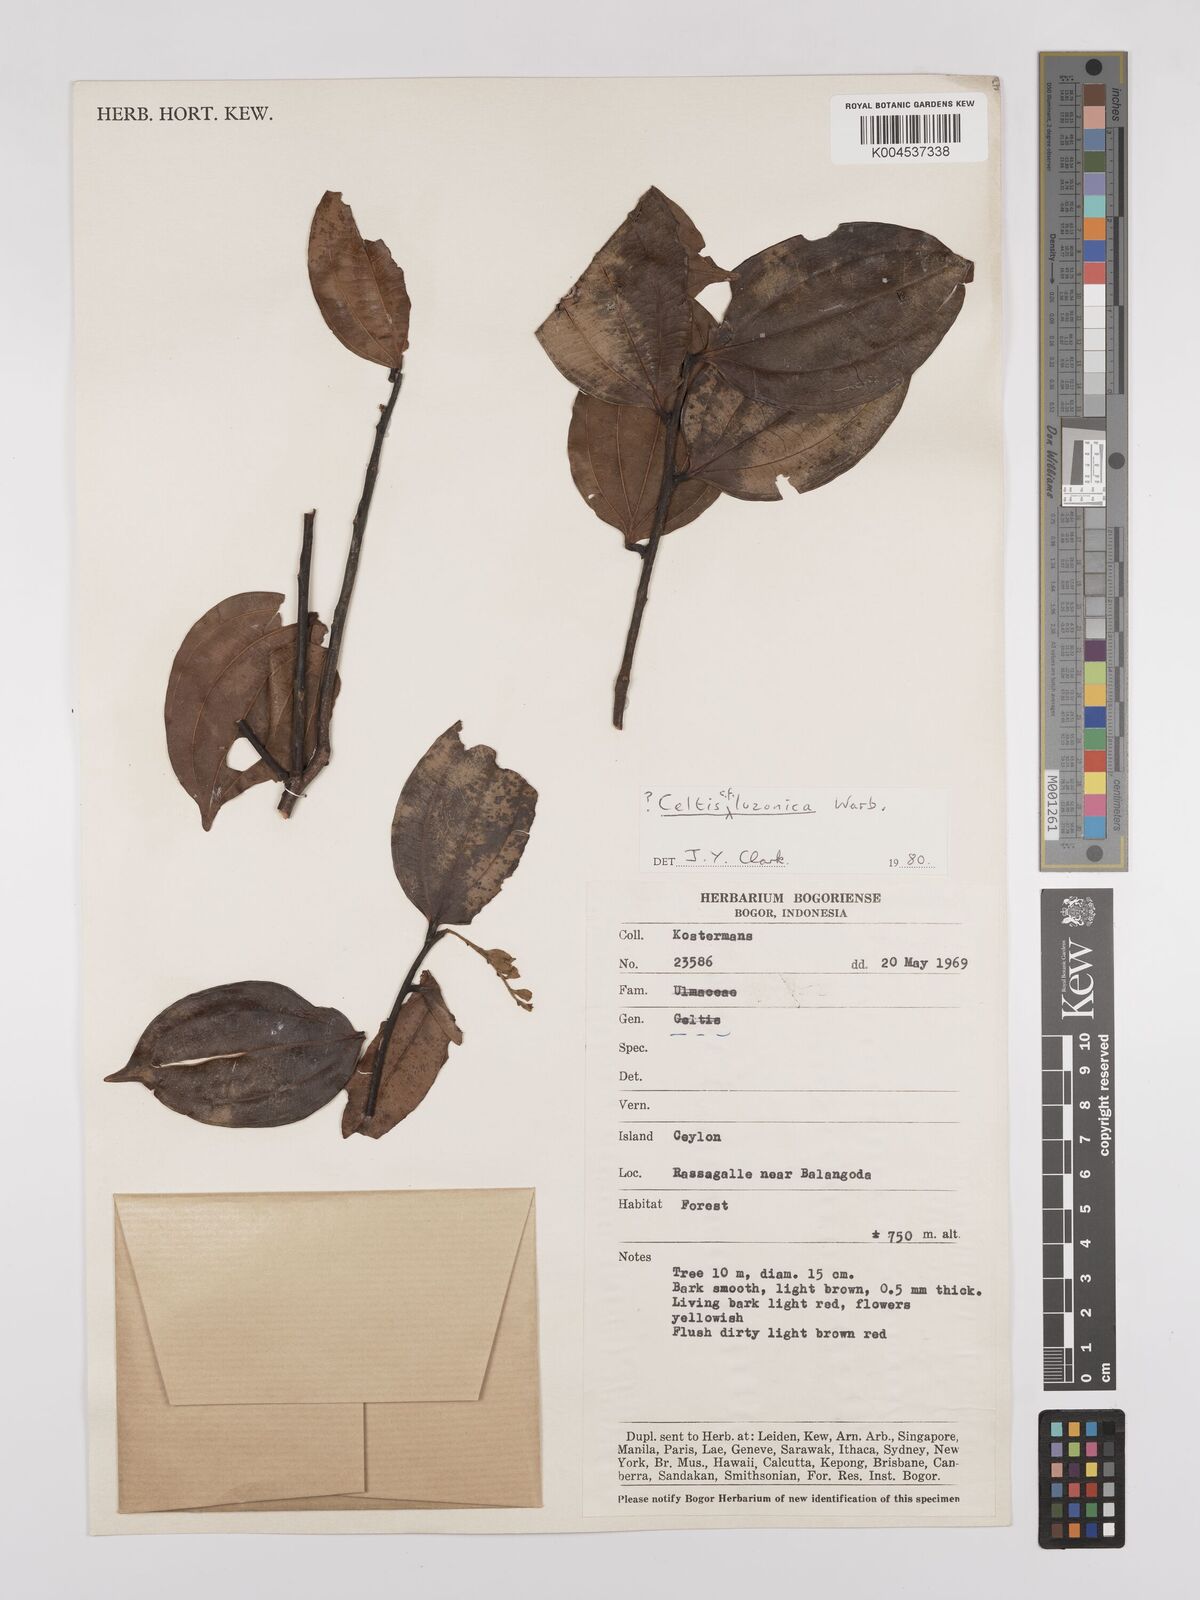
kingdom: Plantae
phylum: Tracheophyta
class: Magnoliopsida
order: Rosales
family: Cannabaceae
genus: Celtis
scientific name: Celtis
